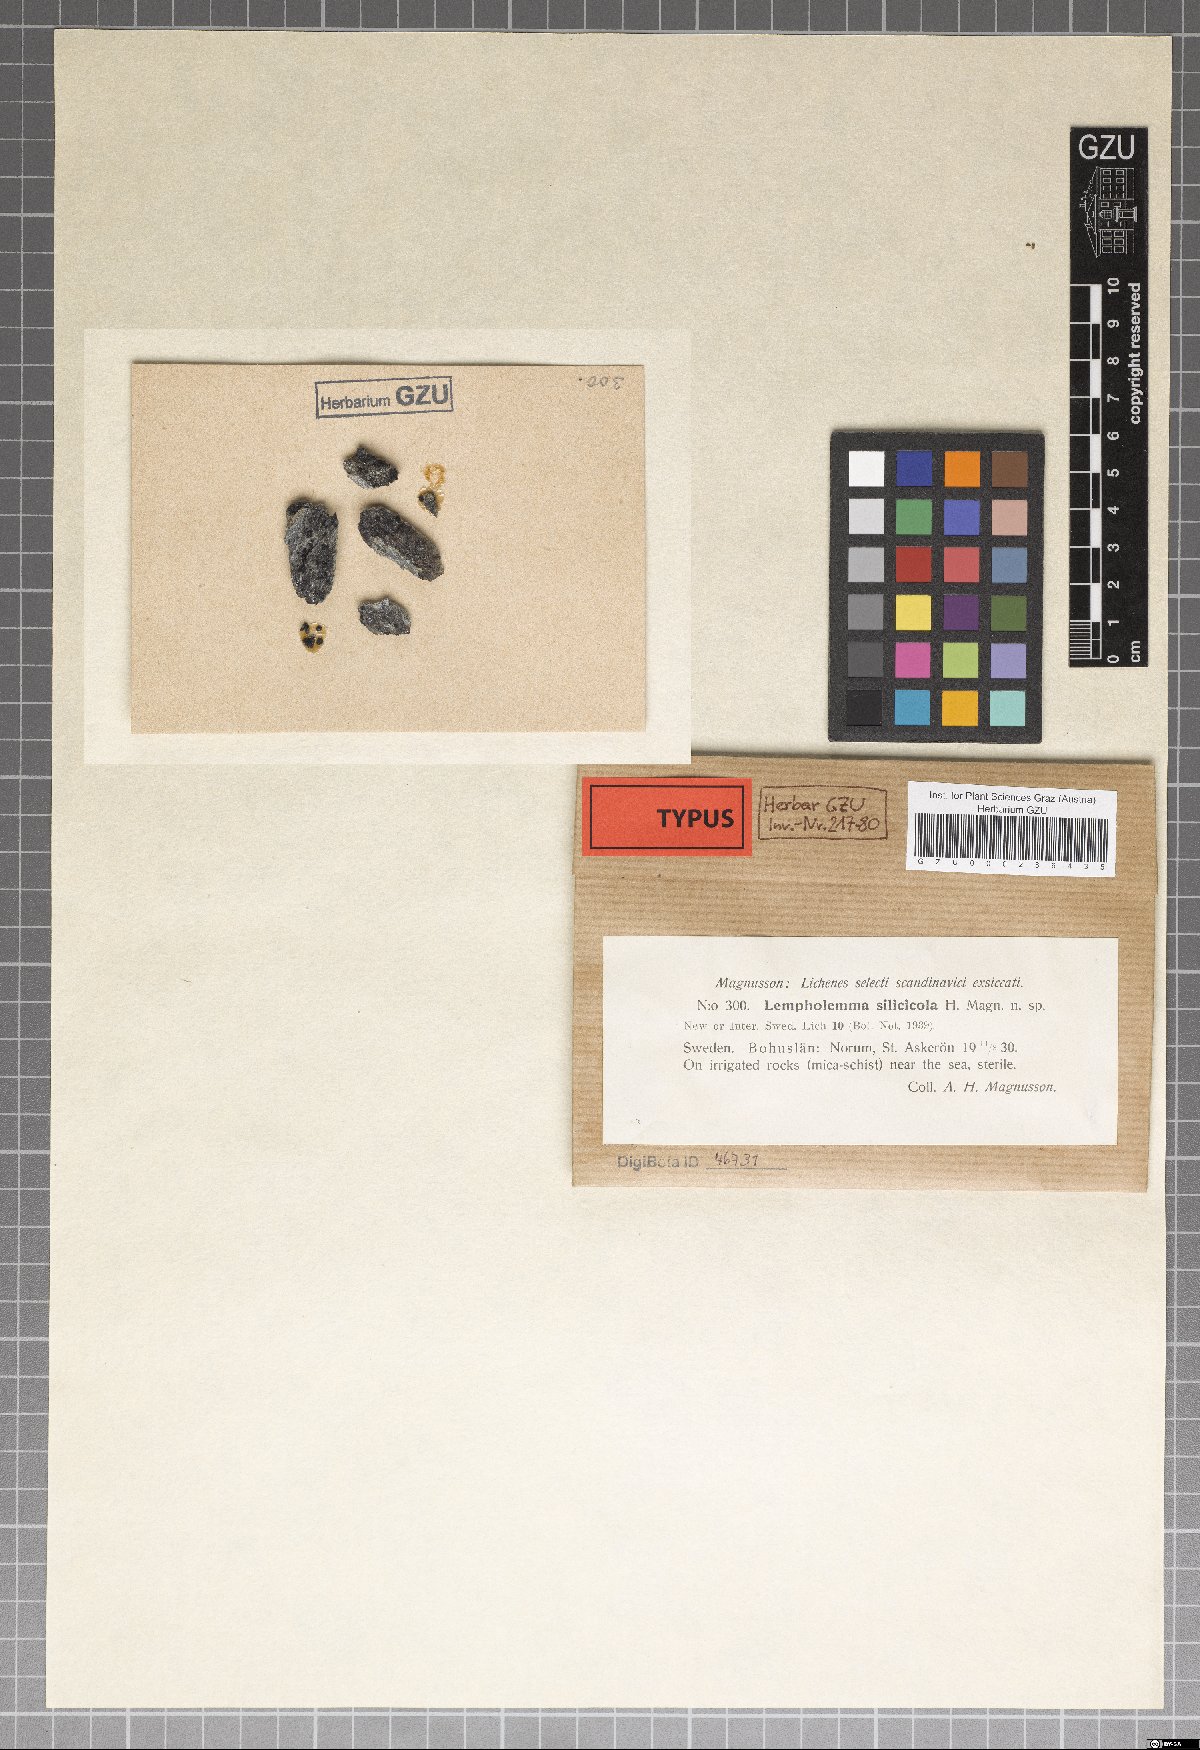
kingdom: Fungi
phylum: Ascomycota
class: Lichinomycetes
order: Lichinales
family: Lichinaceae
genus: Lempholemma
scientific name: Lempholemma isidiodes
